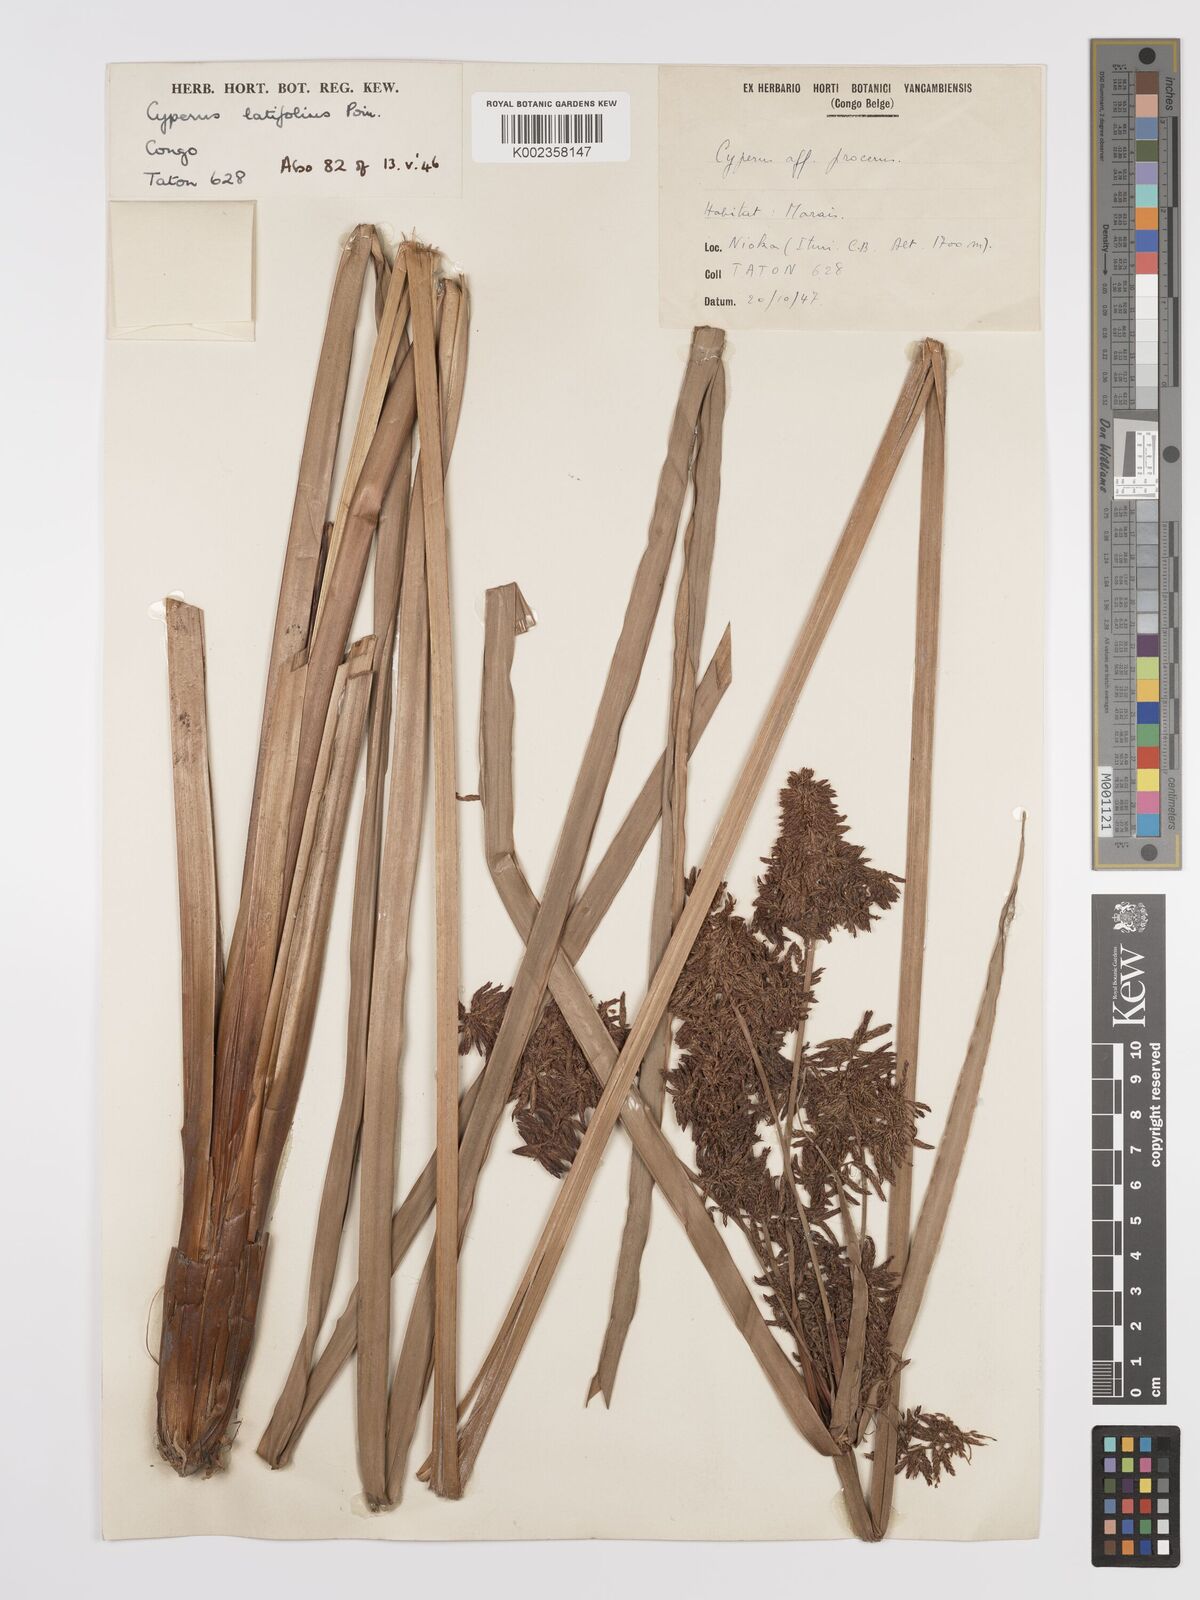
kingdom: Plantae
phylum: Tracheophyta
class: Liliopsida
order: Poales
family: Cyperaceae
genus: Cyperus
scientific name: Cyperus latifolius
